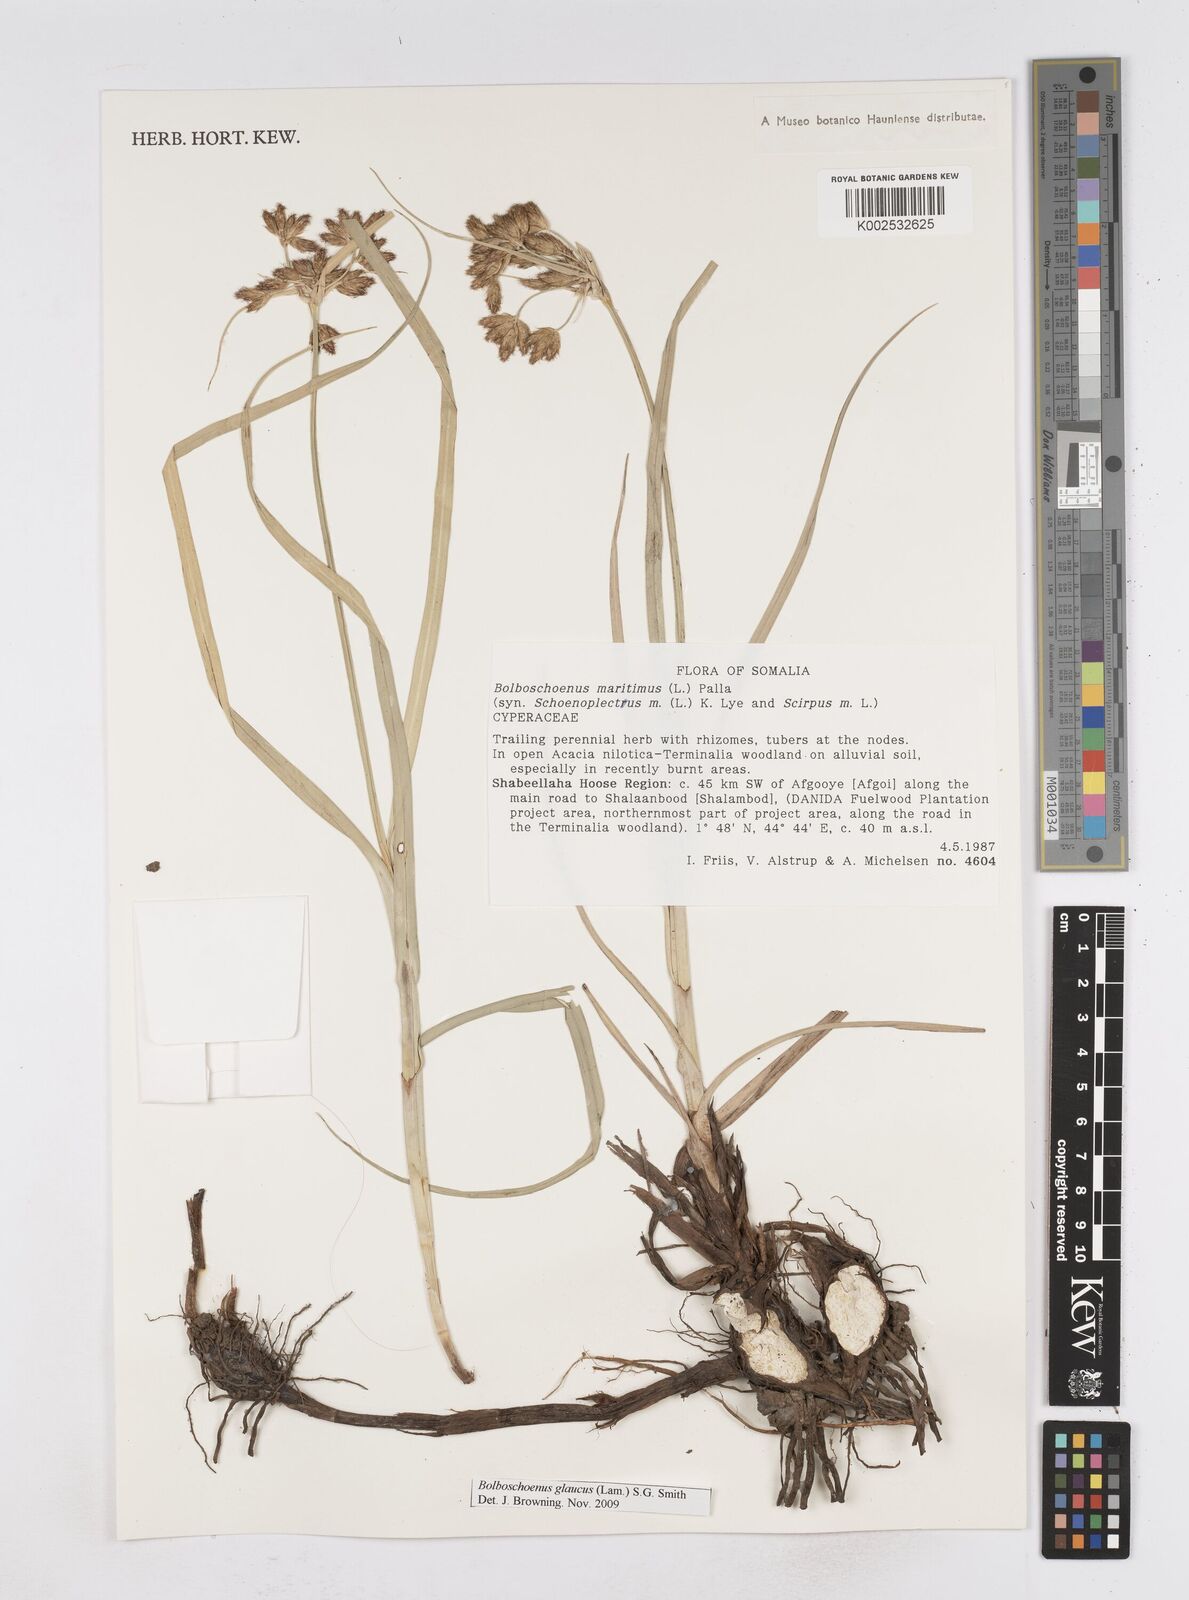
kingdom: Plantae
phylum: Tracheophyta
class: Liliopsida
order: Poales
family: Cyperaceae
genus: Bolboschoenus
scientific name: Bolboschoenus glaucus
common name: Tuberous bulrush
